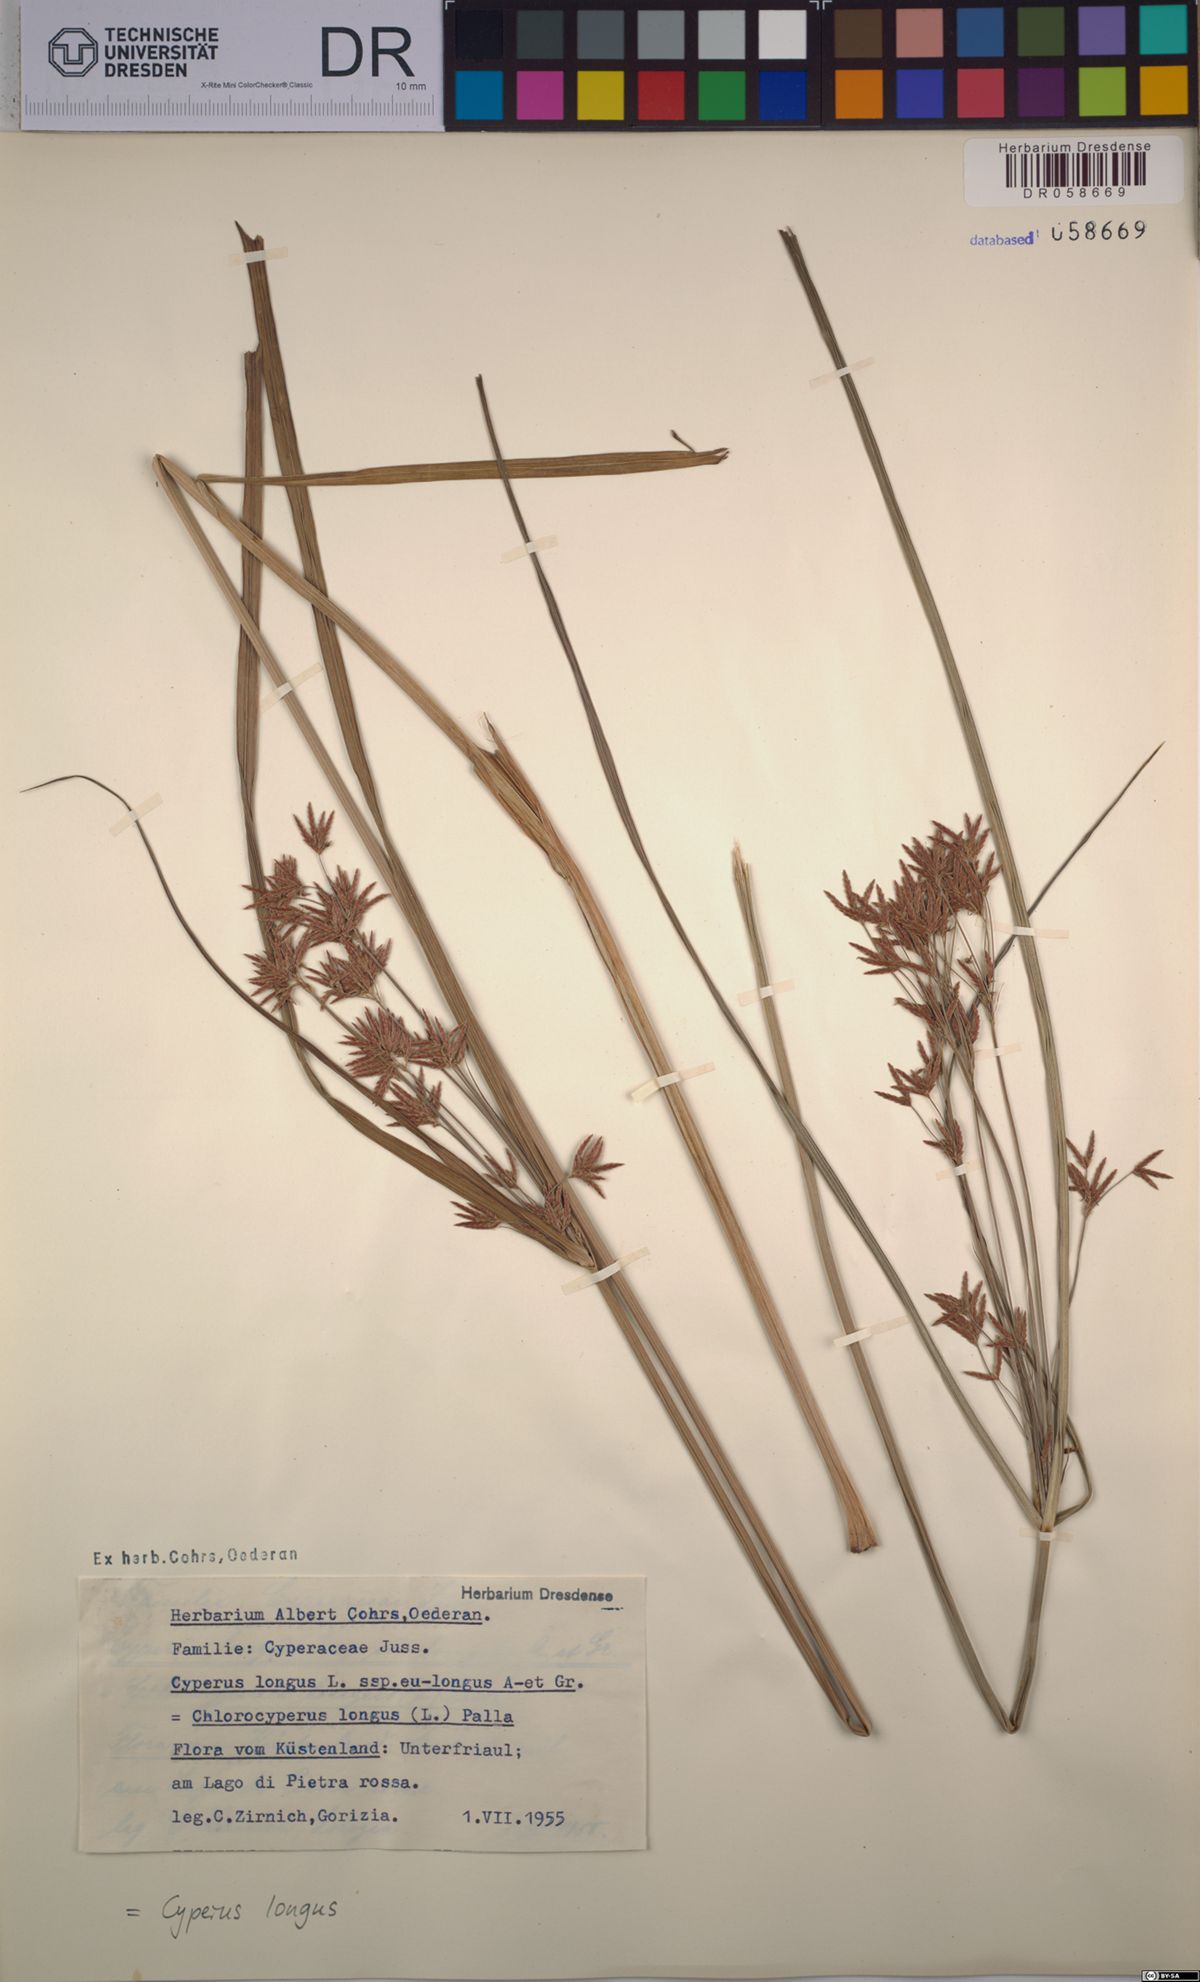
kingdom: Plantae
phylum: Tracheophyta
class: Liliopsida
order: Poales
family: Cyperaceae
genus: Cyperus
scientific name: Cyperus longus
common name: Galingale
